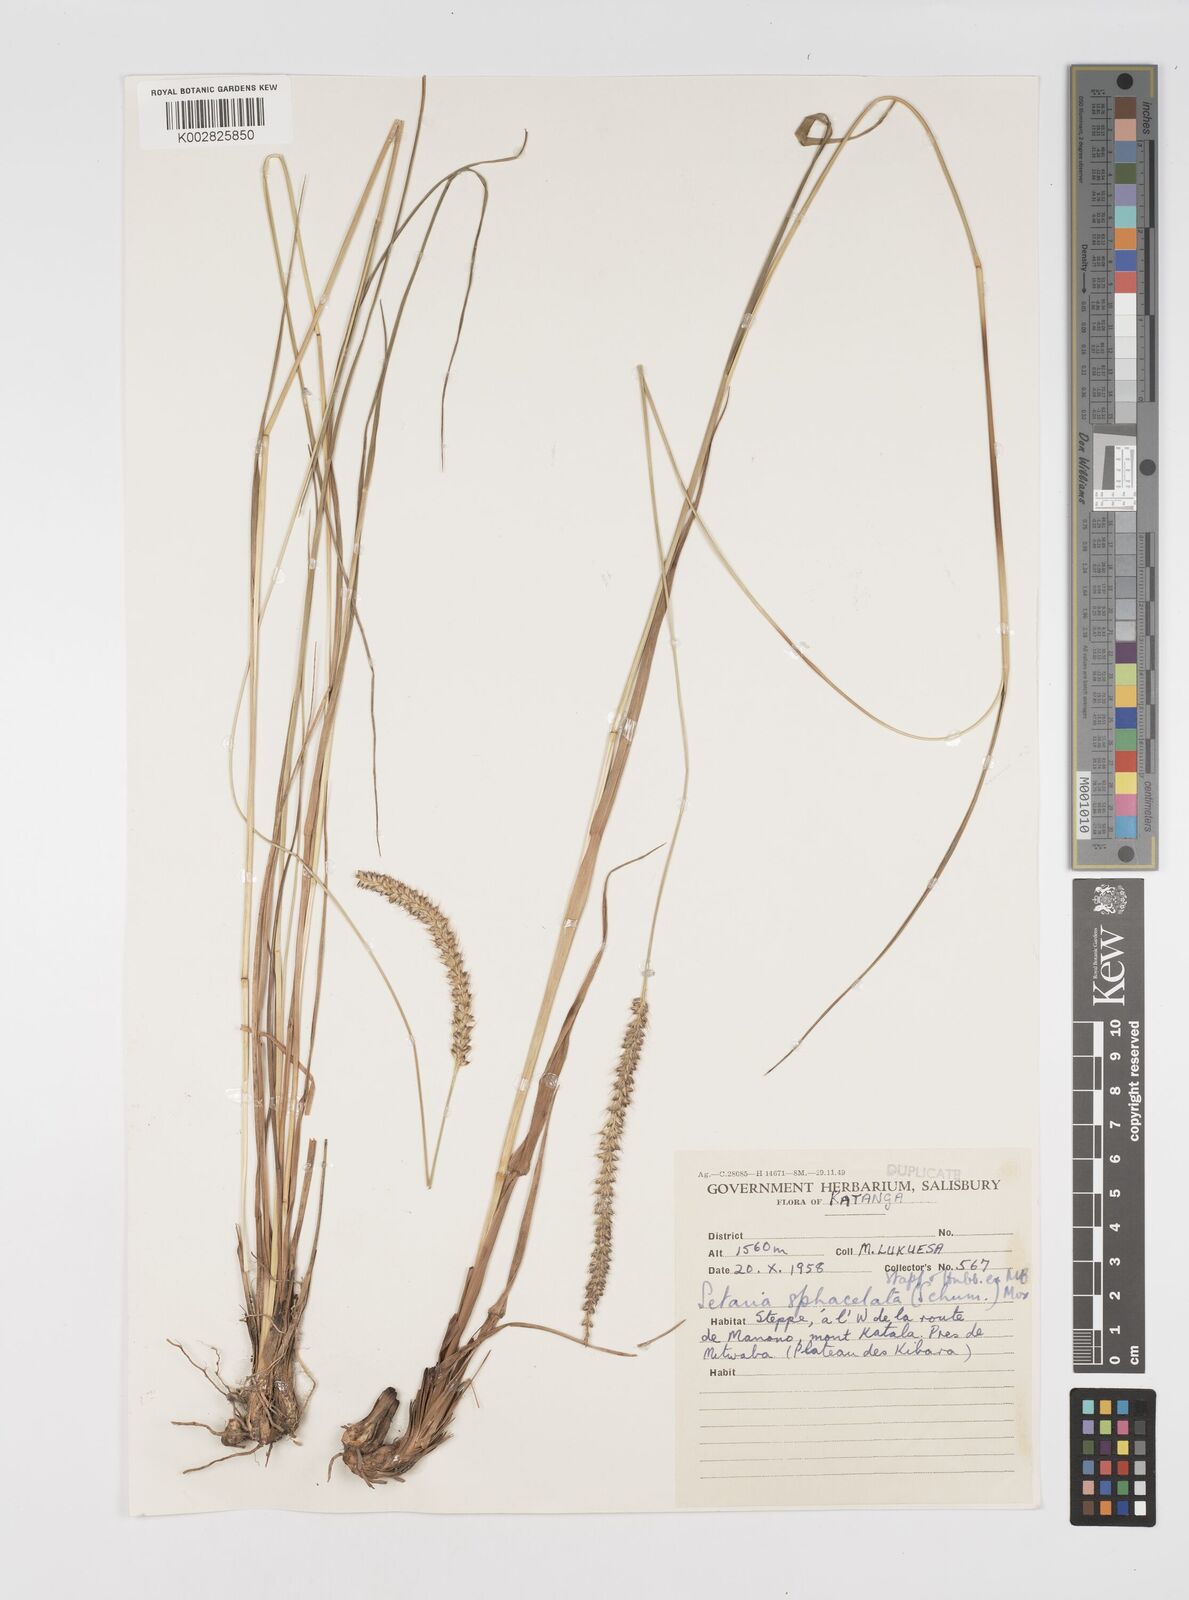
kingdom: Plantae
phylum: Tracheophyta
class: Liliopsida
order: Poales
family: Poaceae
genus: Setaria
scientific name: Setaria sphacelata
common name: African bristlegrass
